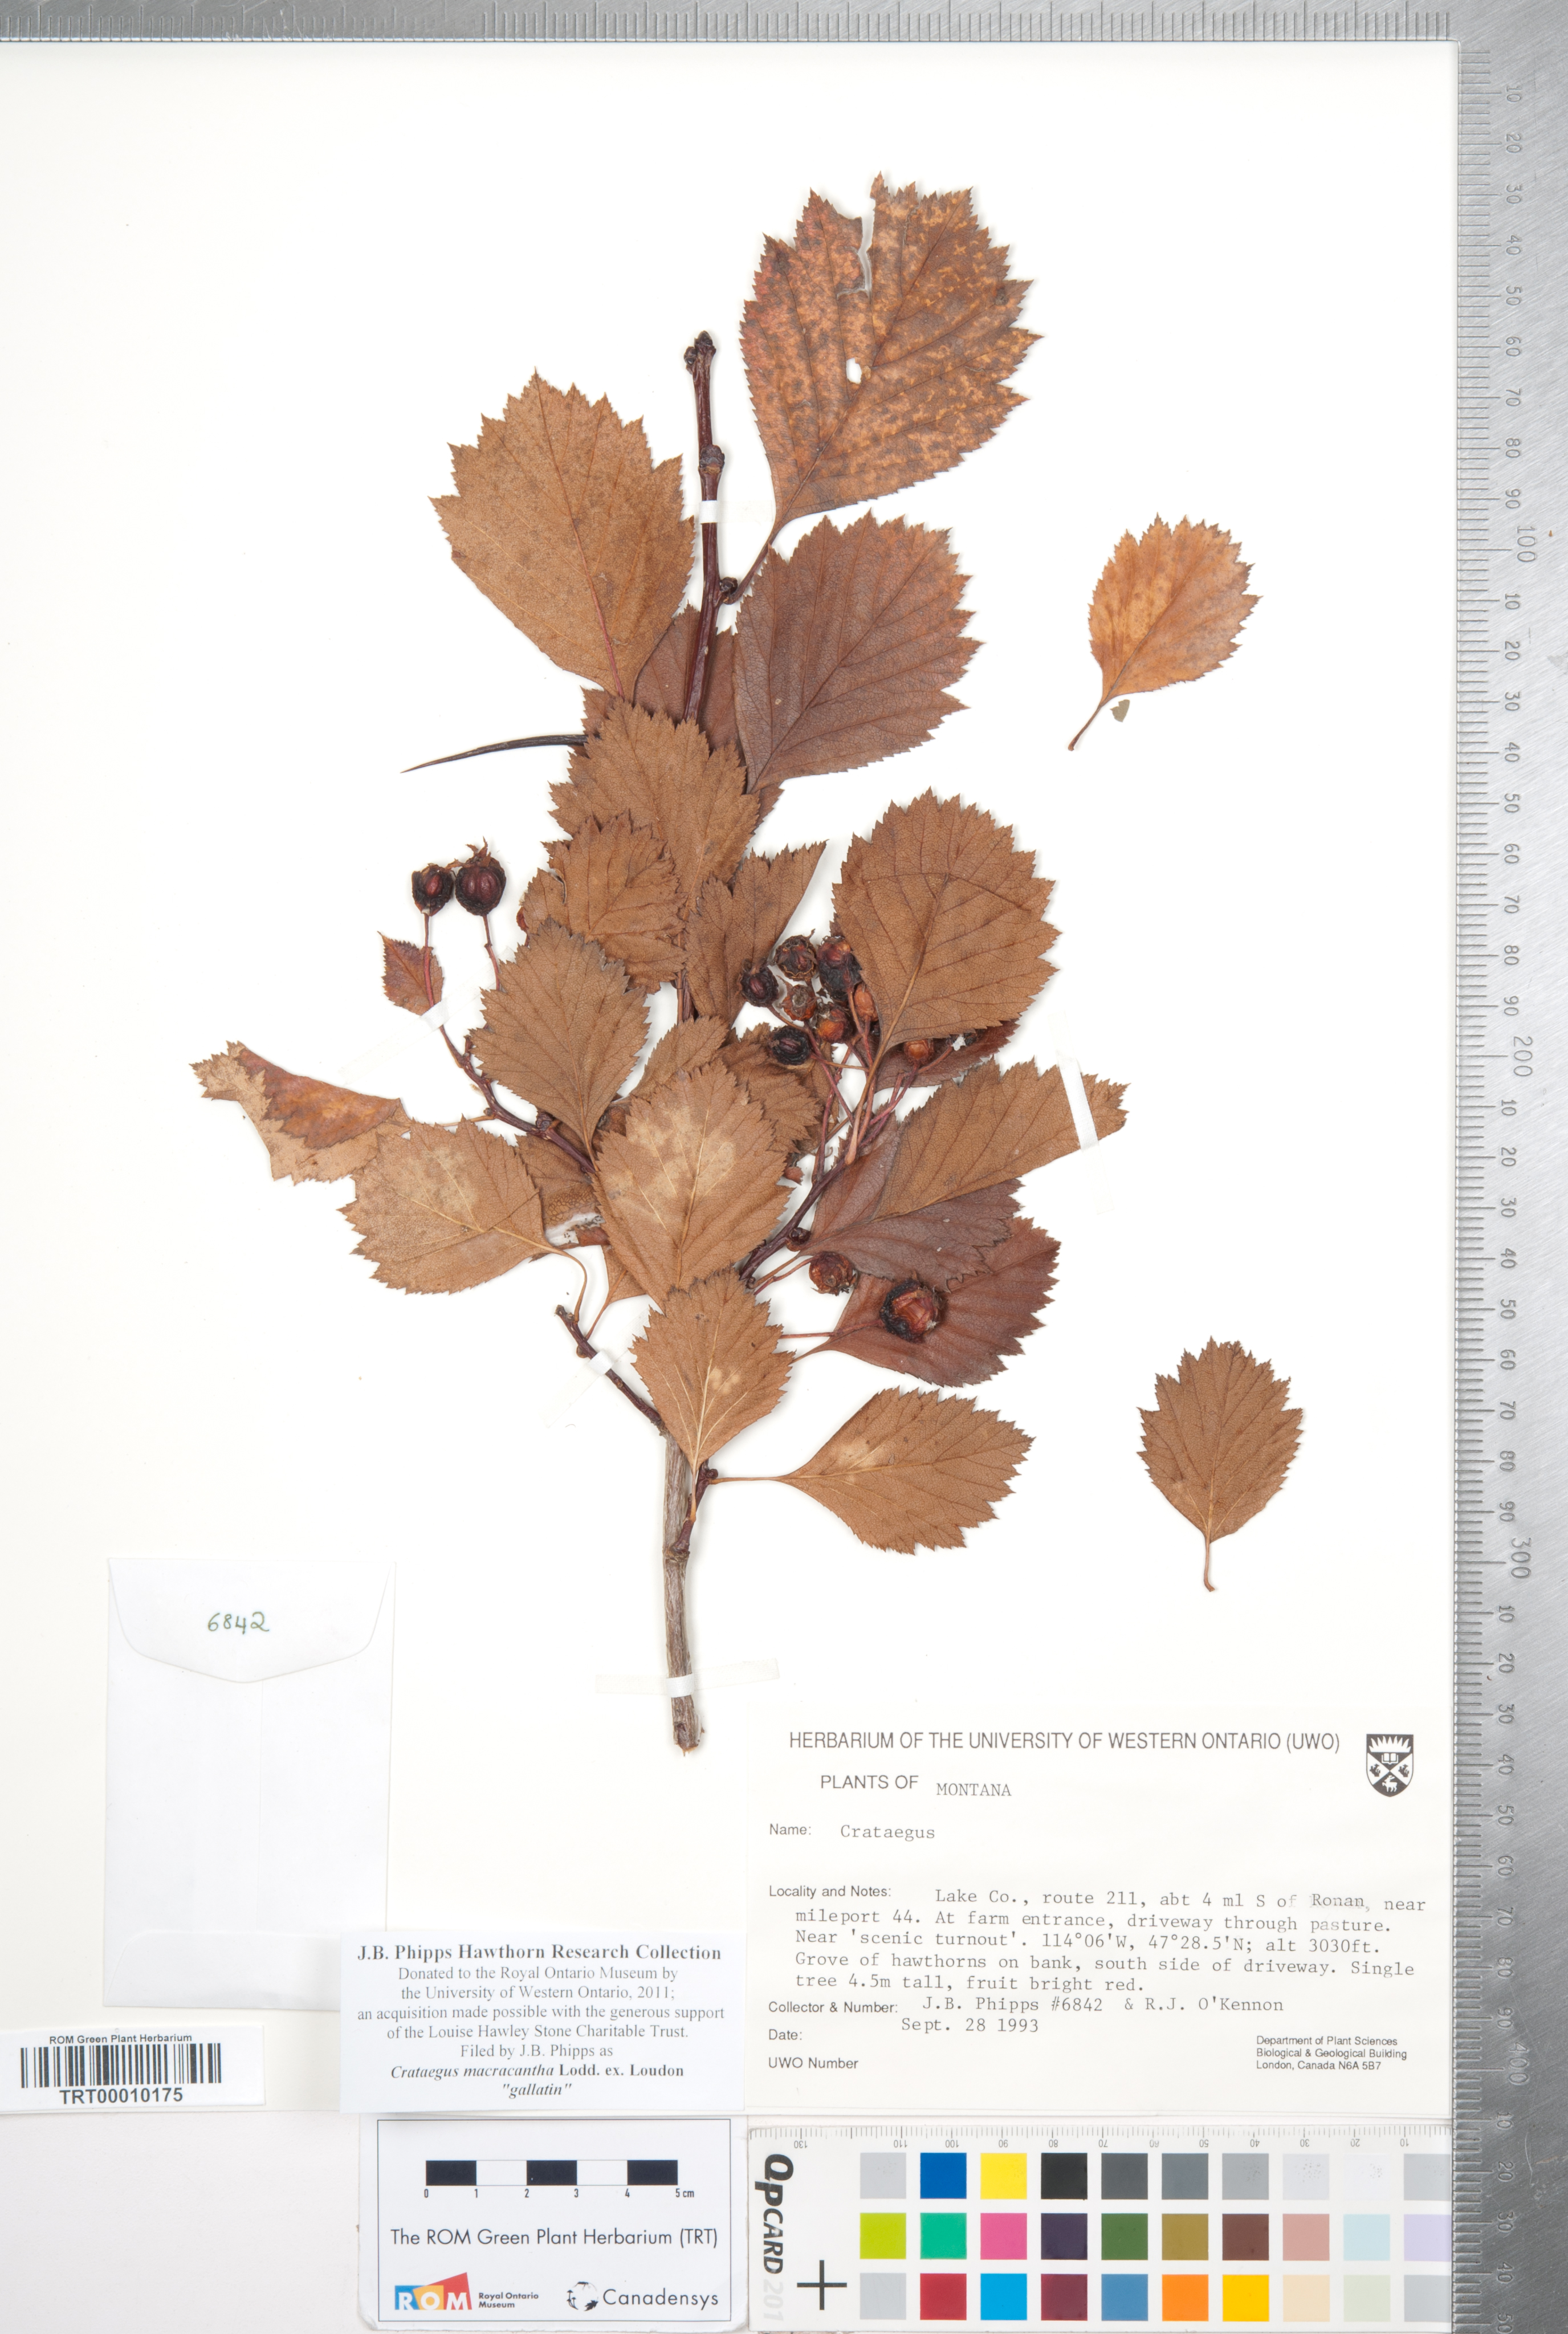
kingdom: Plantae
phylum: Tracheophyta
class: Magnoliopsida
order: Rosales
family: Rosaceae
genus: Crataegus
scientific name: Crataegus macracantha
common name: Large-thorn hawthorn
